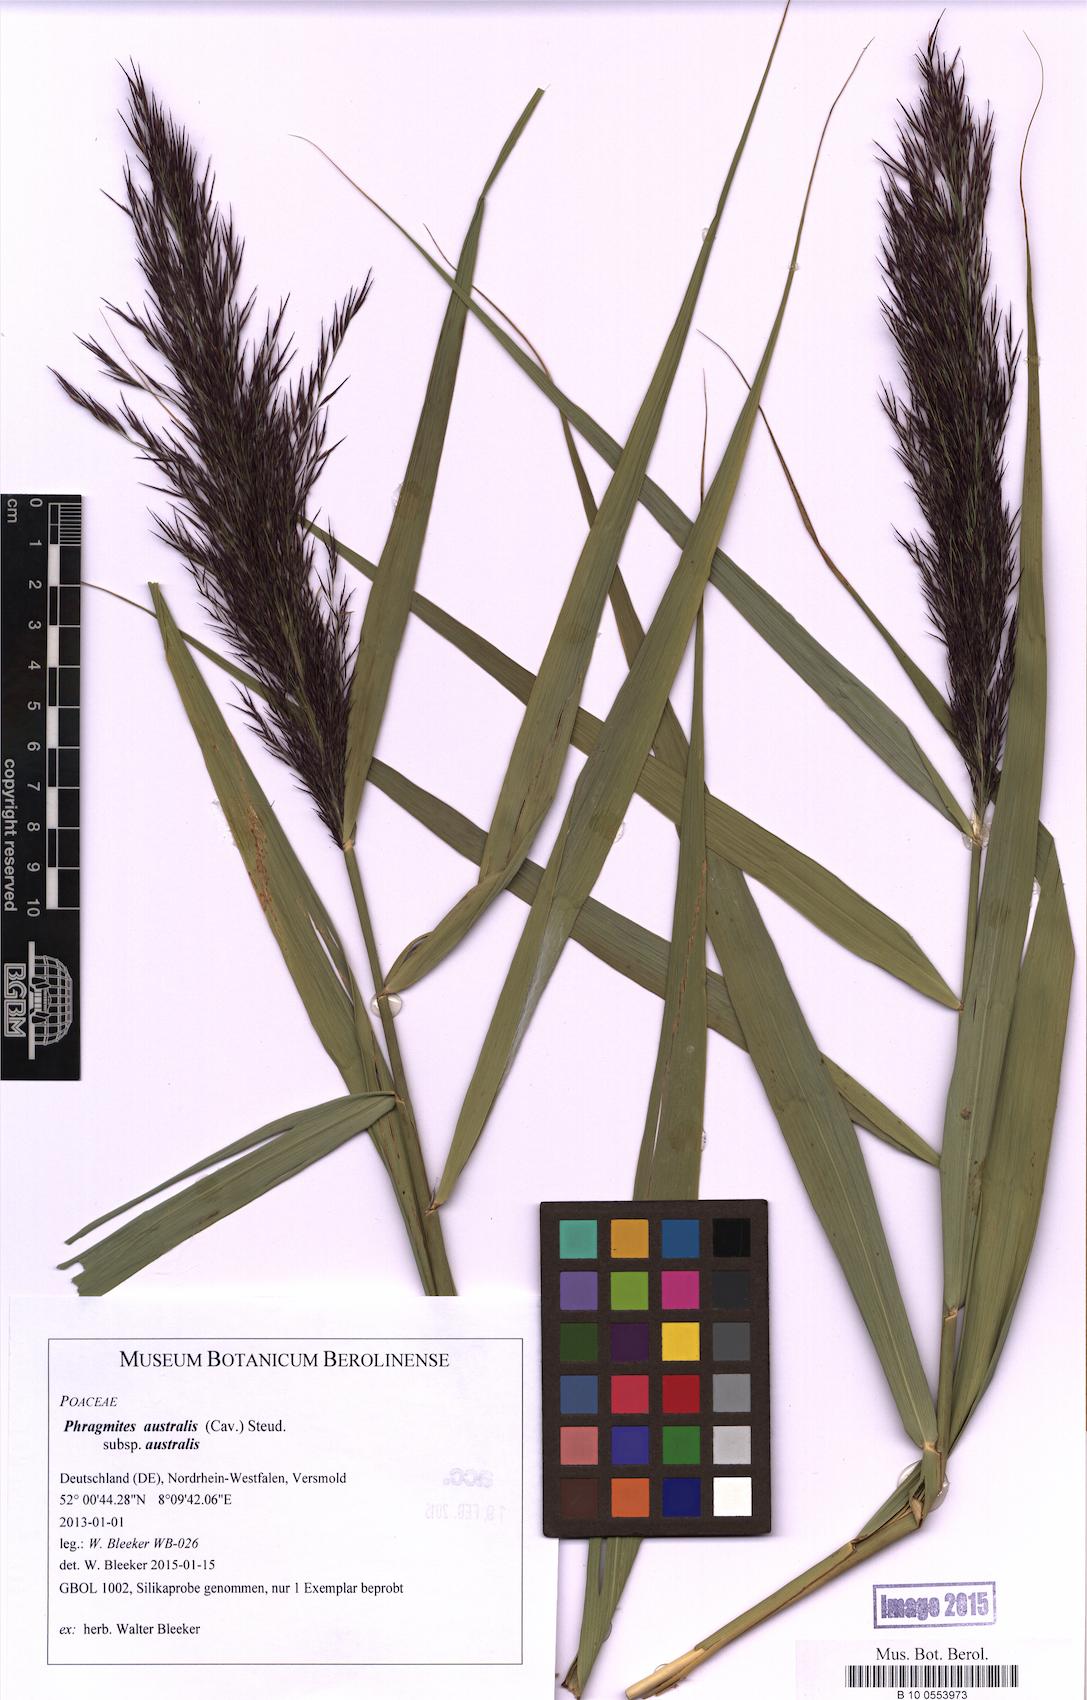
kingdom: Plantae
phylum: Tracheophyta
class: Liliopsida
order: Poales
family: Poaceae
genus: Phragmites
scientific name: Phragmites australis
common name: Common reed
